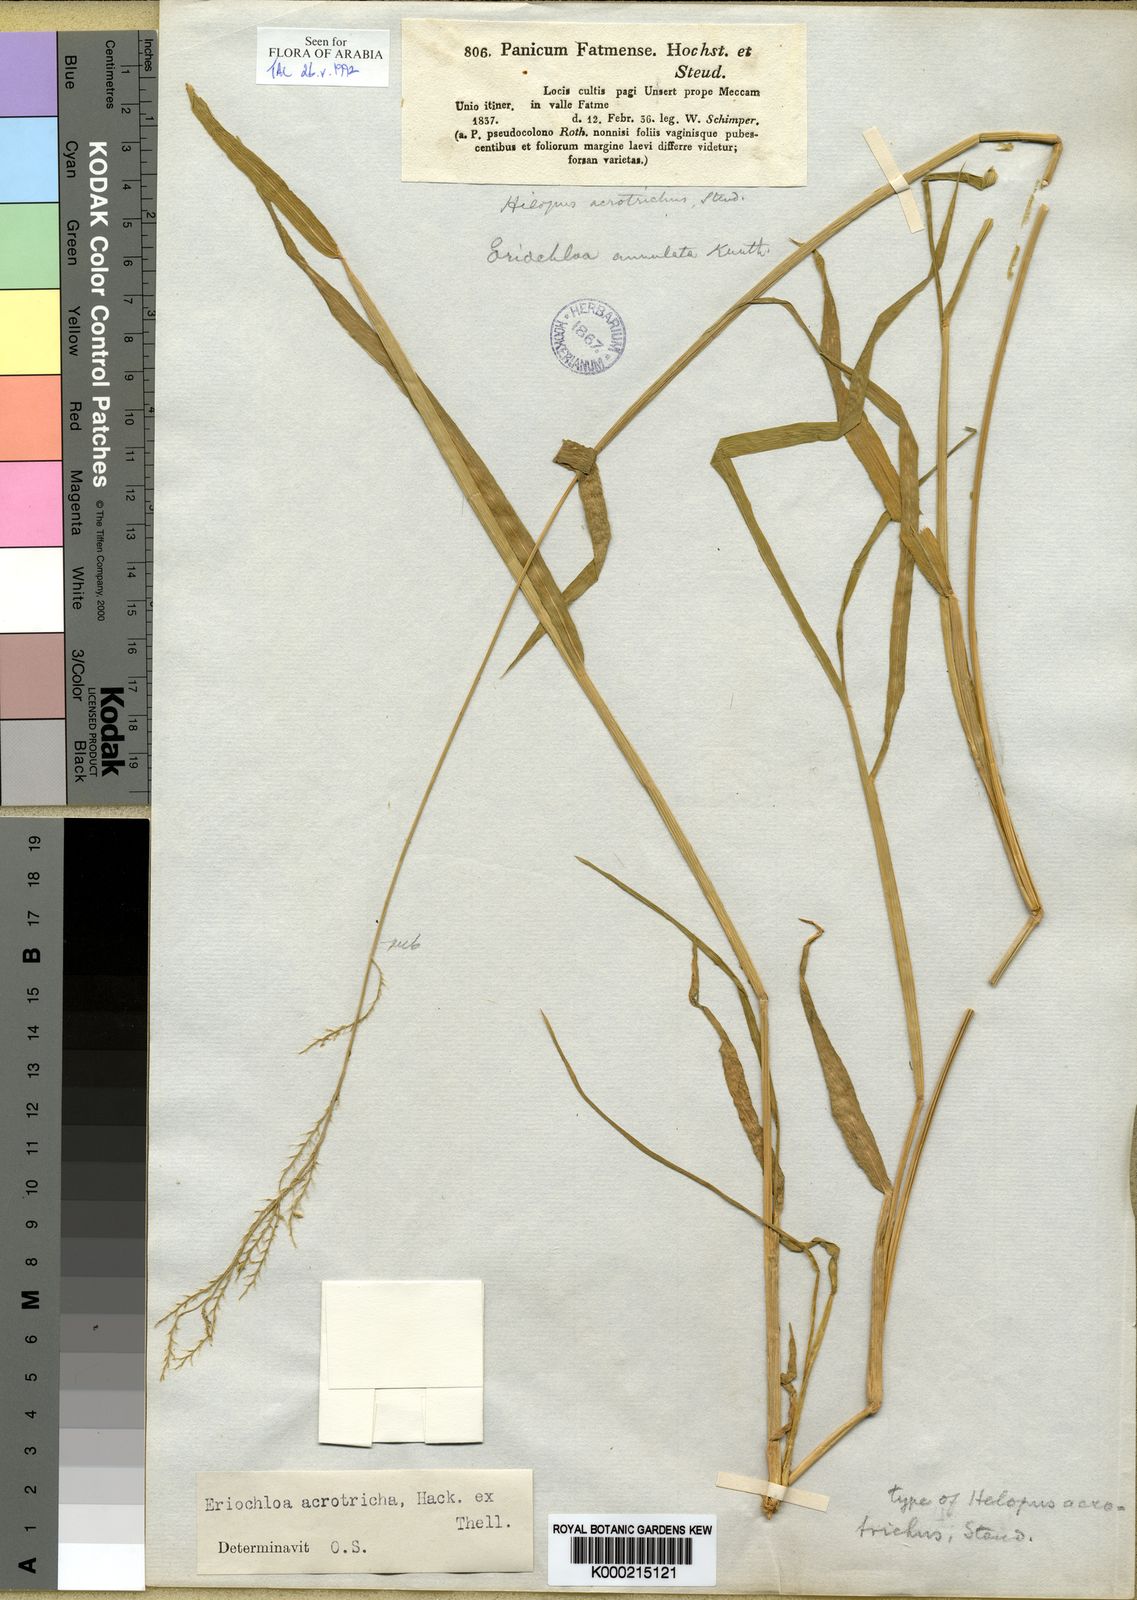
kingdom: Plantae
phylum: Tracheophyta
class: Liliopsida
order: Poales
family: Poaceae
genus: Eriochloa
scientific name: Eriochloa barbatus
